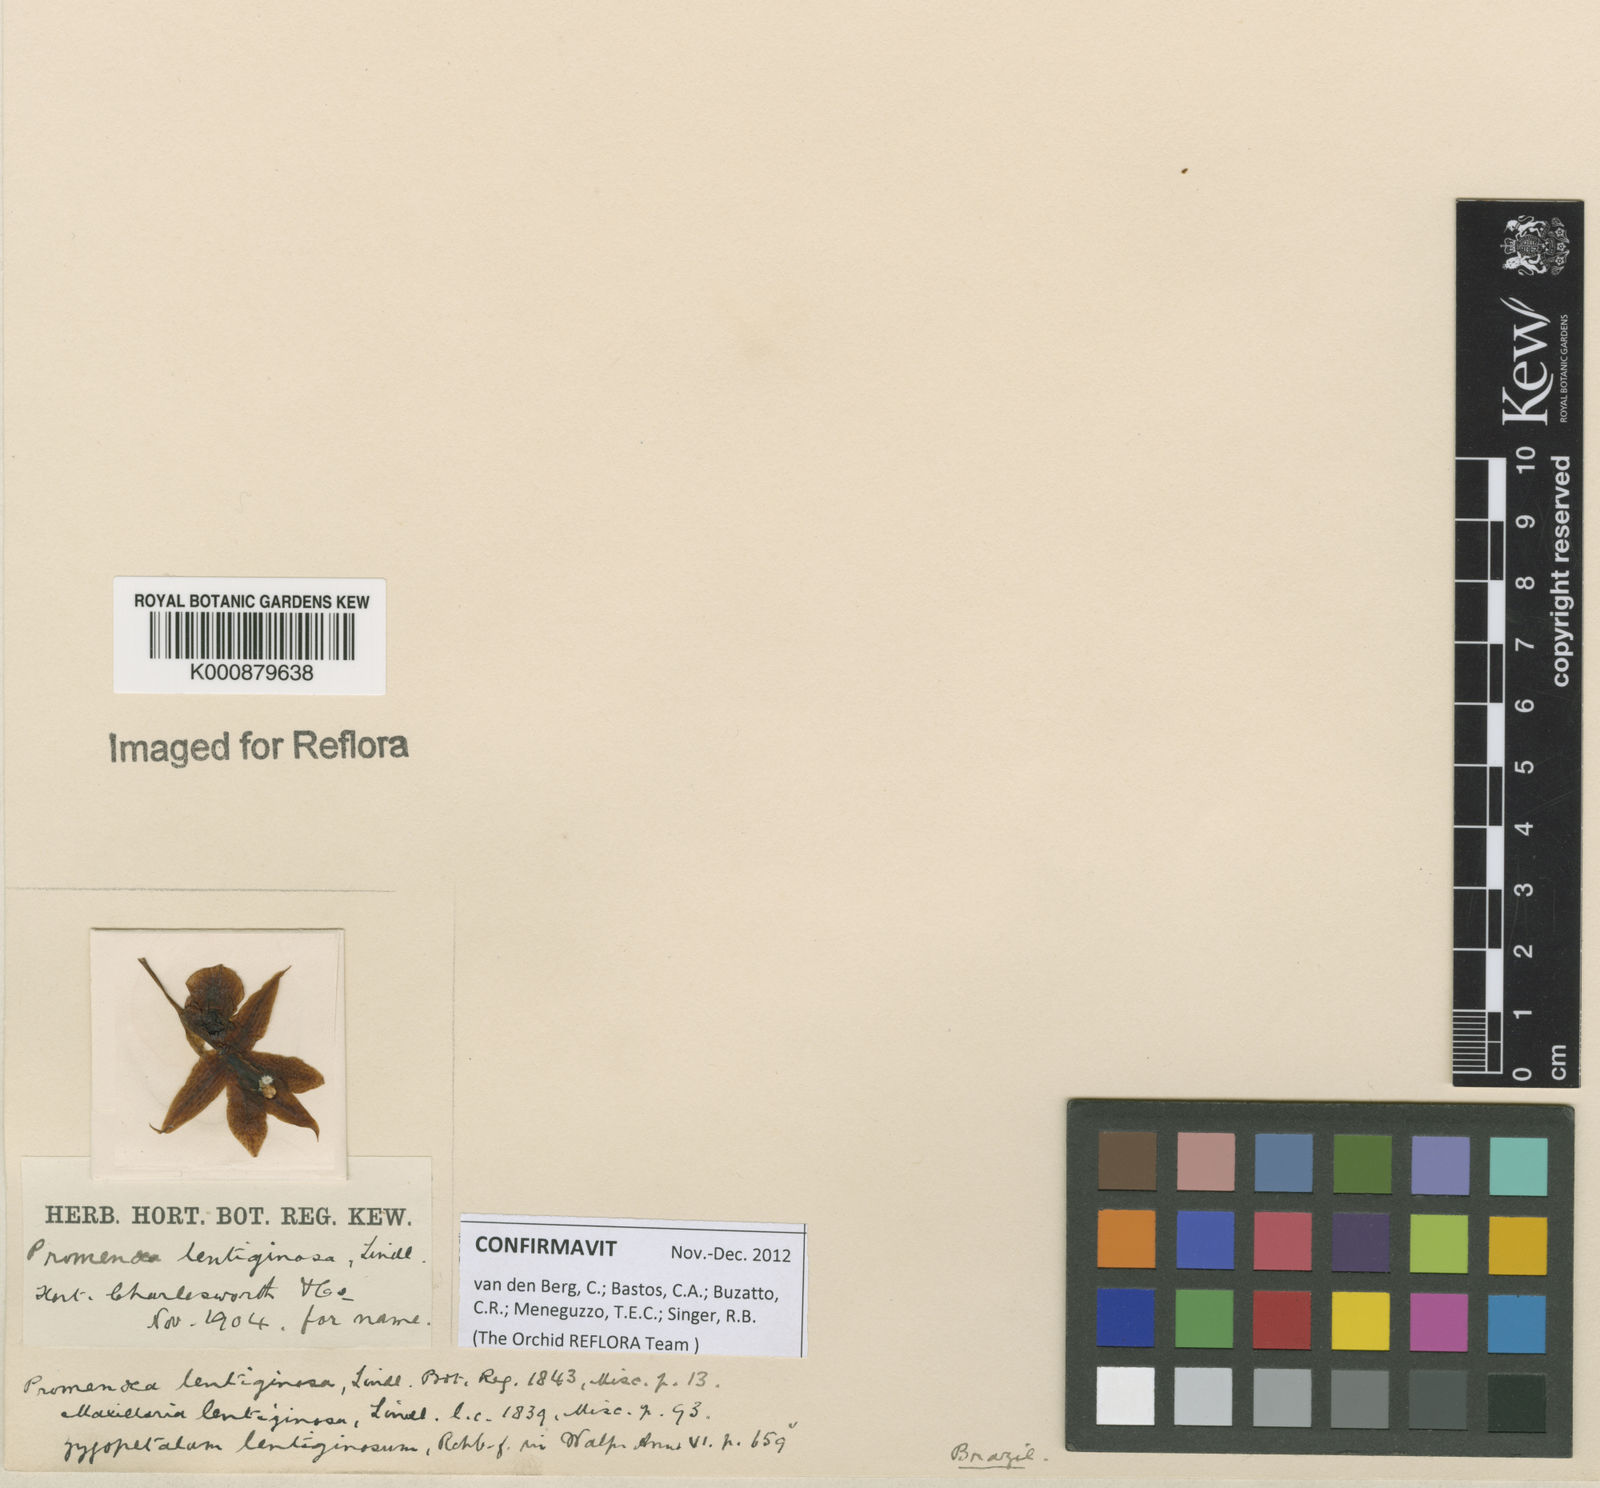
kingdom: Plantae
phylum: Tracheophyta
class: Liliopsida
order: Asparagales
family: Orchidaceae
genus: Promenaea
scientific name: Promenaea rollissonii
